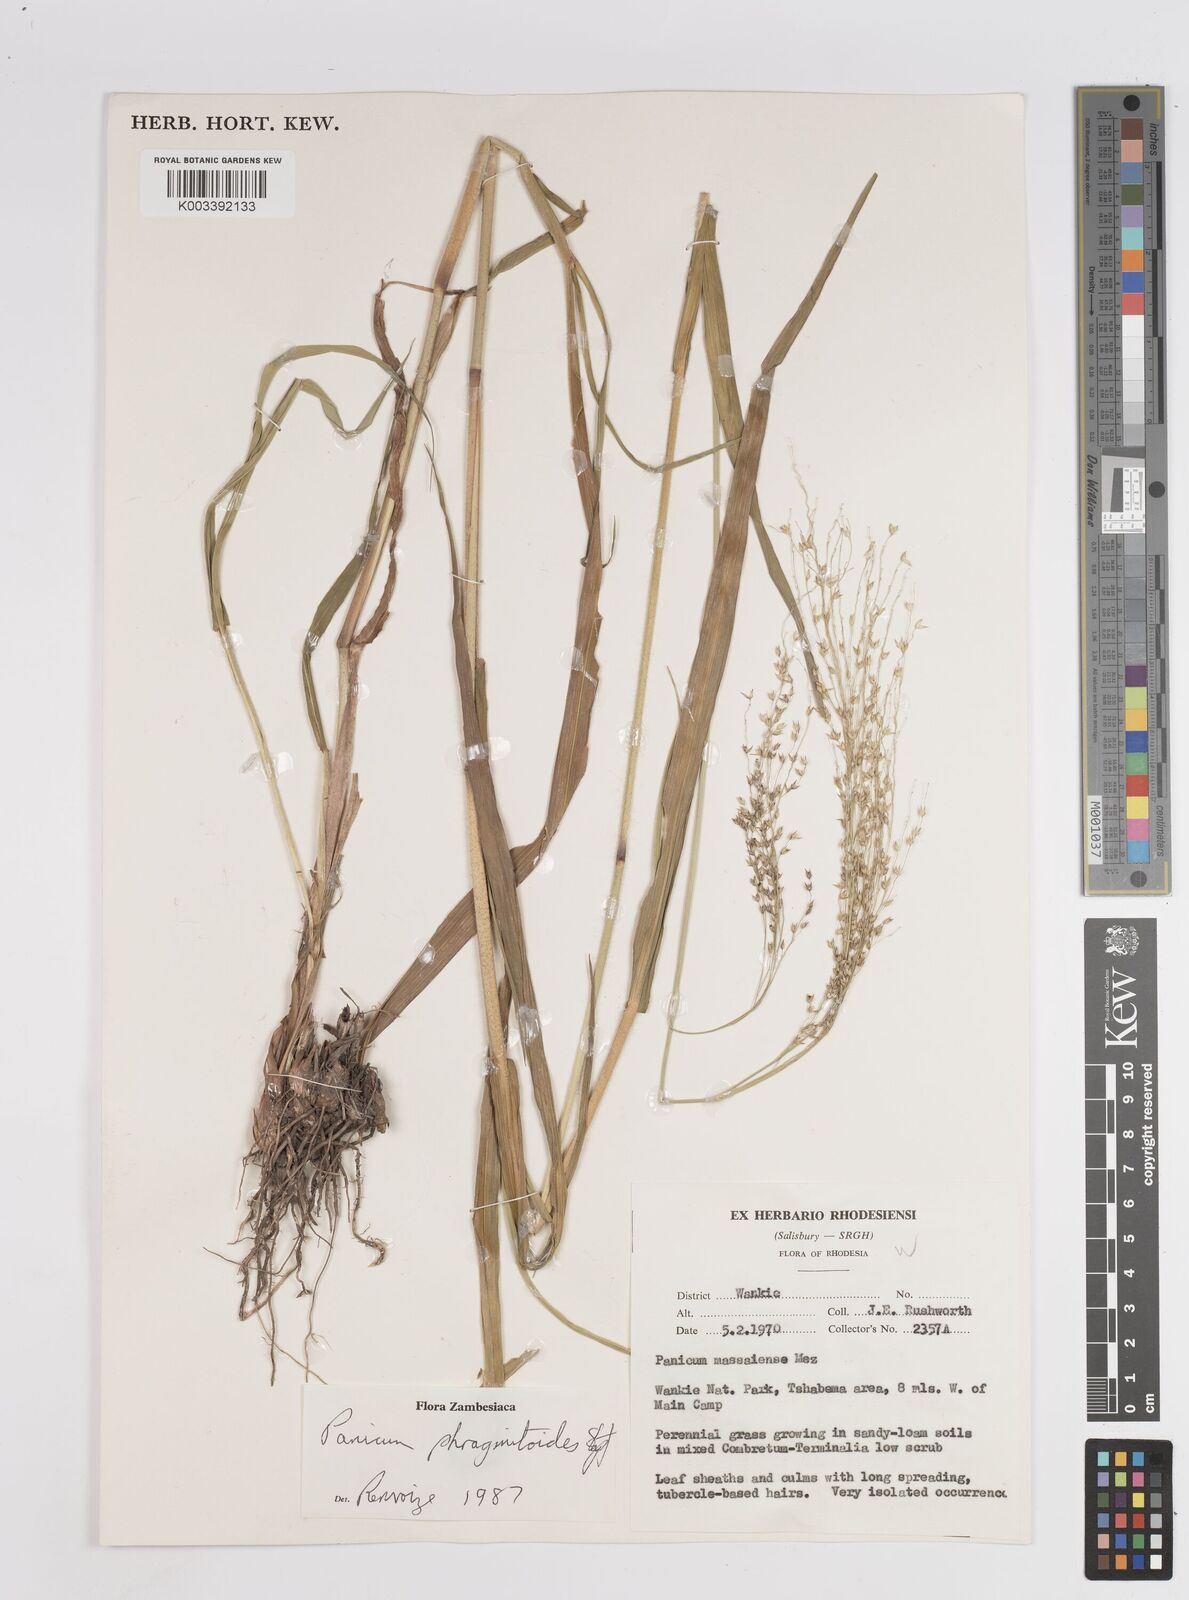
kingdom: Plantae
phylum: Tracheophyta
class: Liliopsida
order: Poales
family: Poaceae
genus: Panicum
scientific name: Panicum phragmitoides
